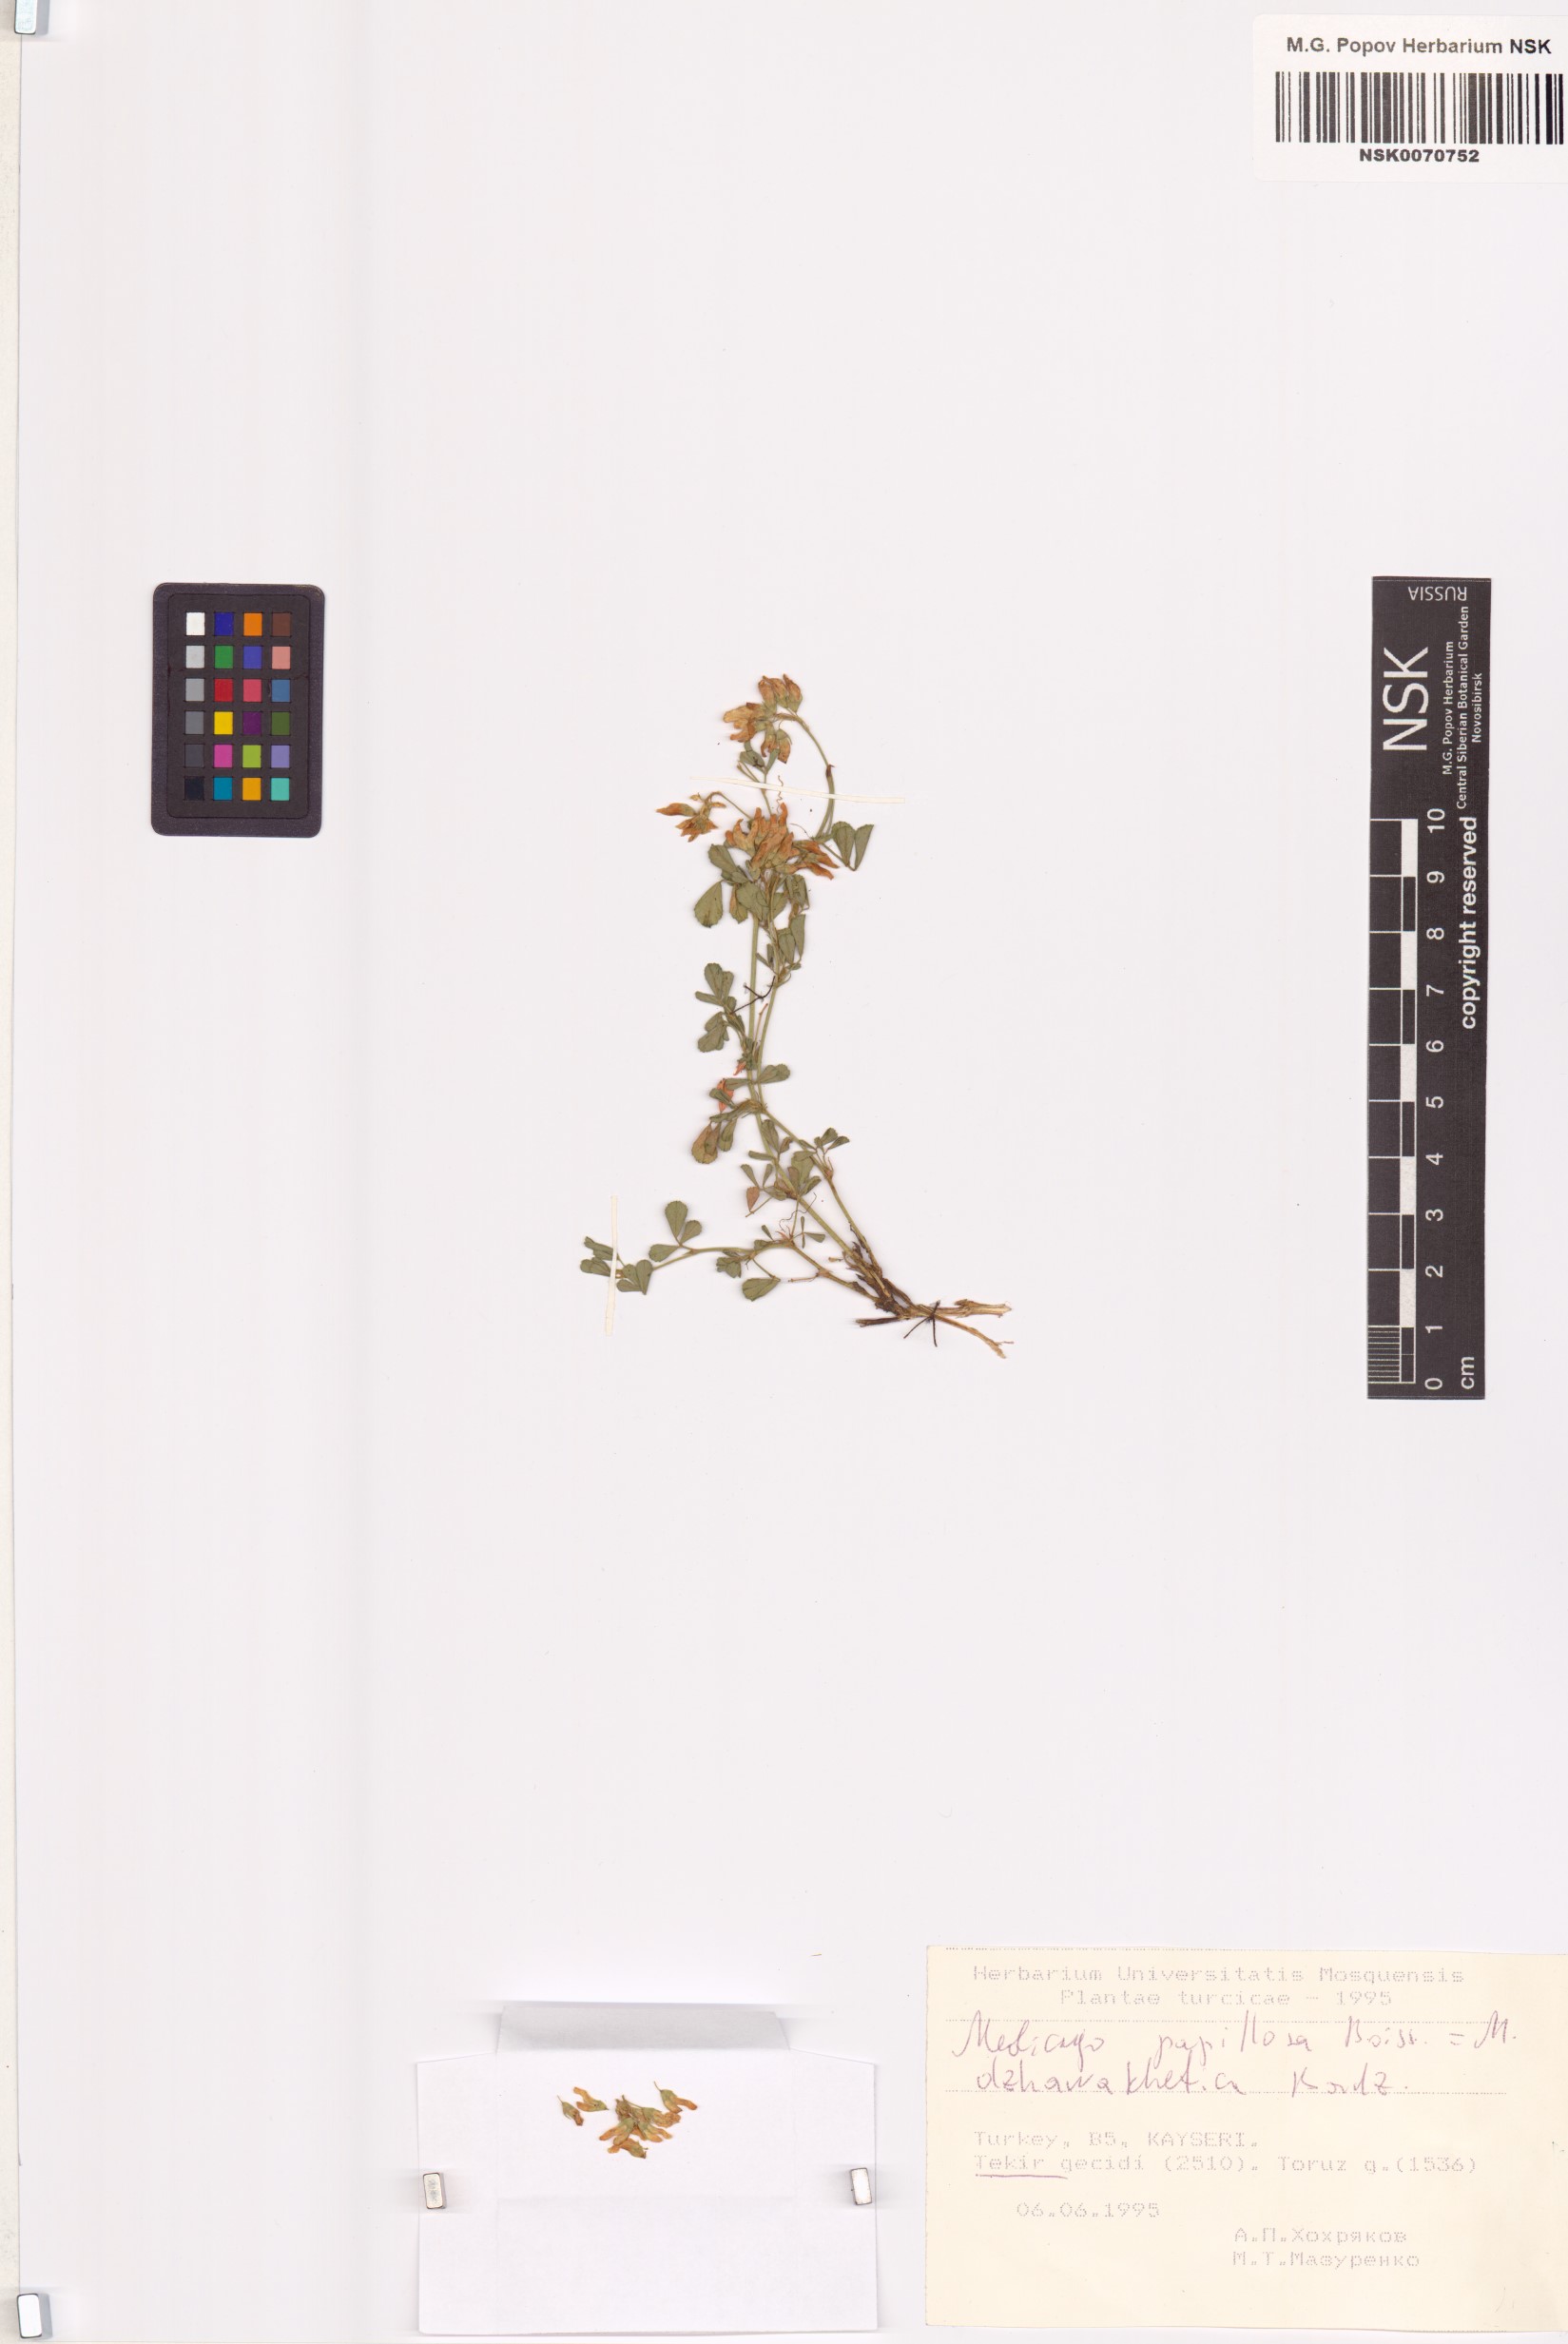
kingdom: Plantae
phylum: Tracheophyta
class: Magnoliopsida
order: Fabales
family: Fabaceae
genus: Medicago
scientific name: Medicago papillosa
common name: Alpine alfalfa
